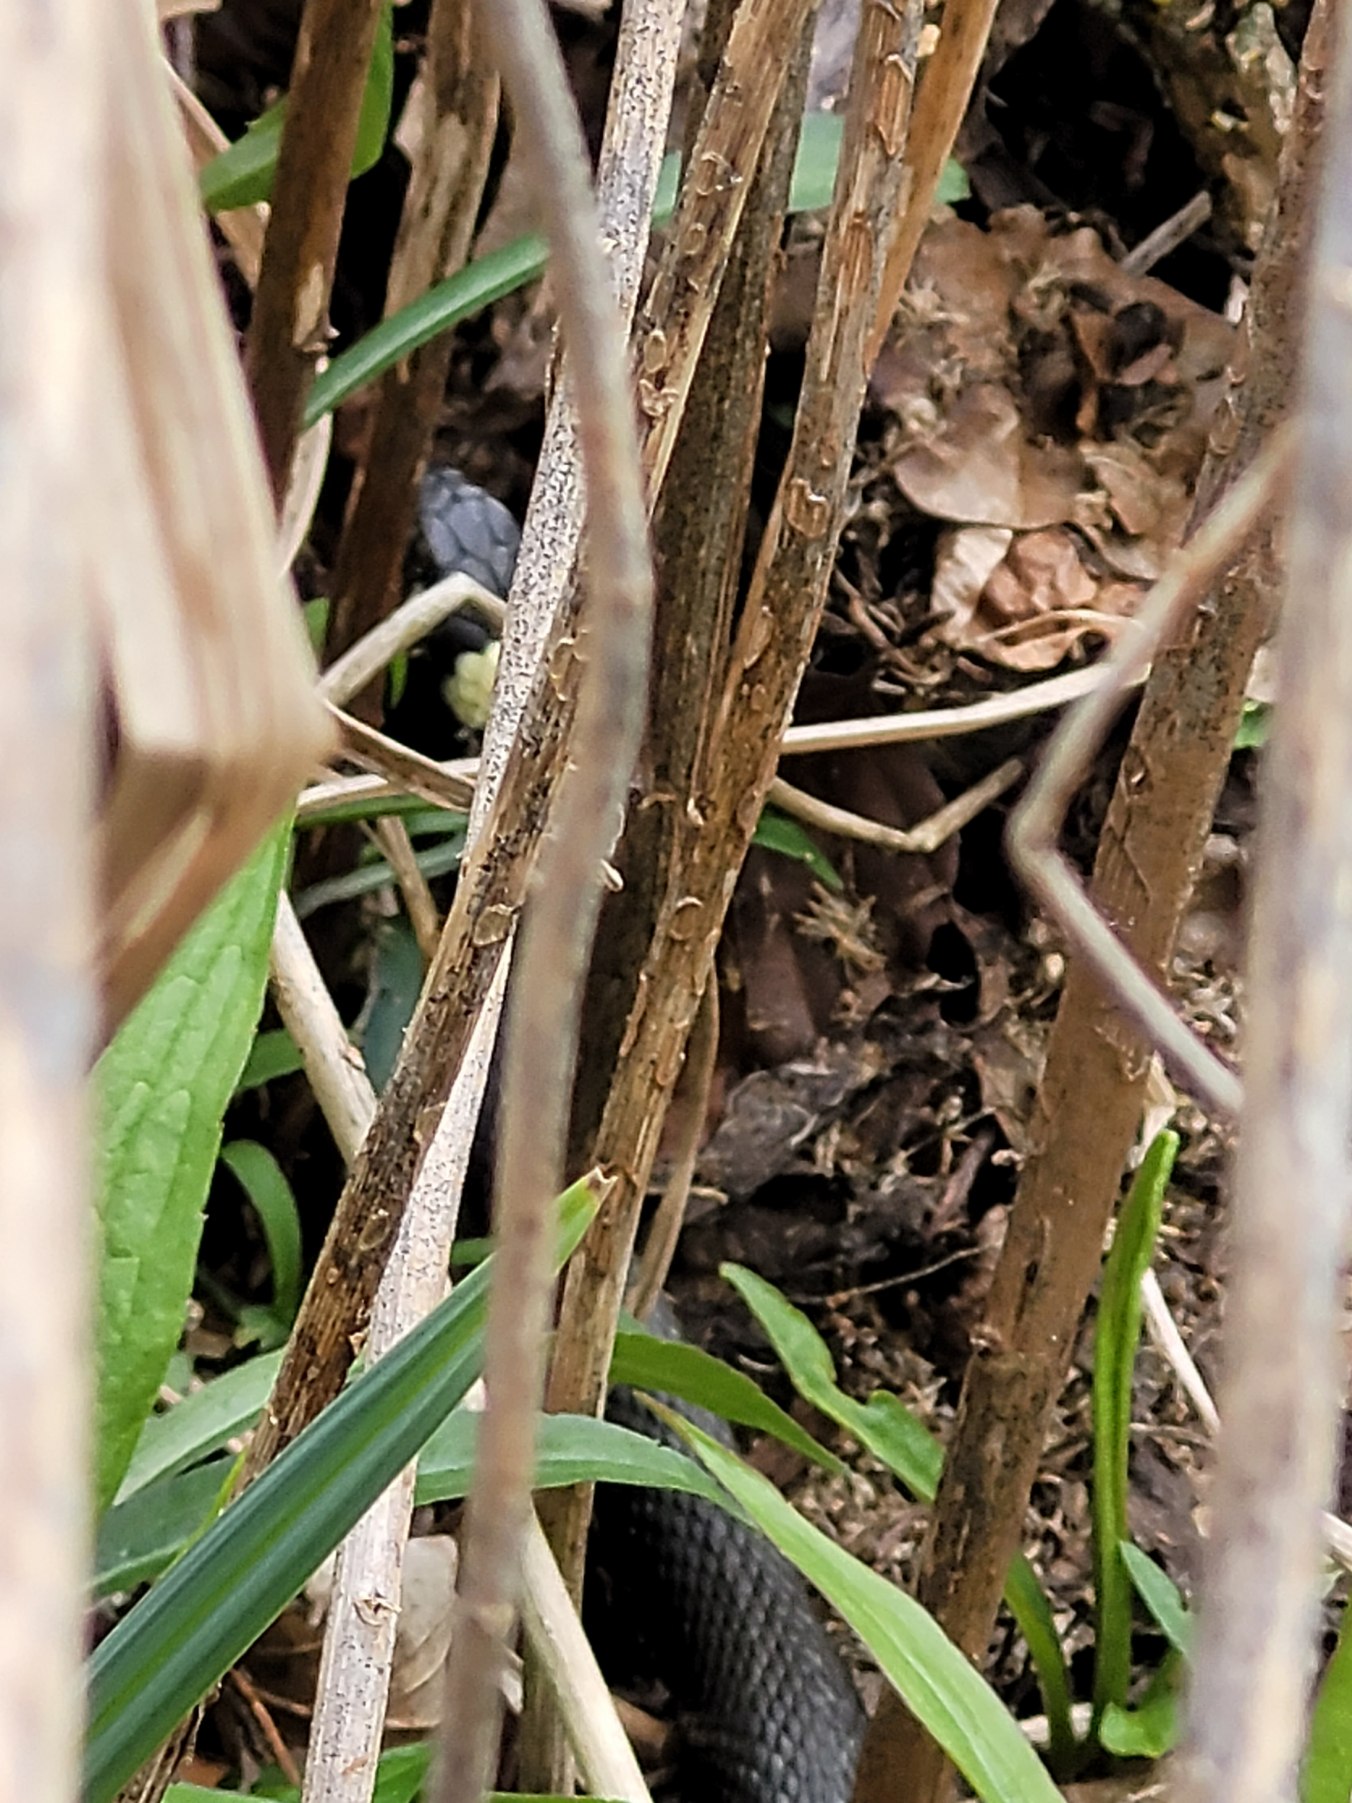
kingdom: Animalia
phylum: Chordata
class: Squamata
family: Colubridae
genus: Natrix
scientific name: Natrix natrix
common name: Snog
